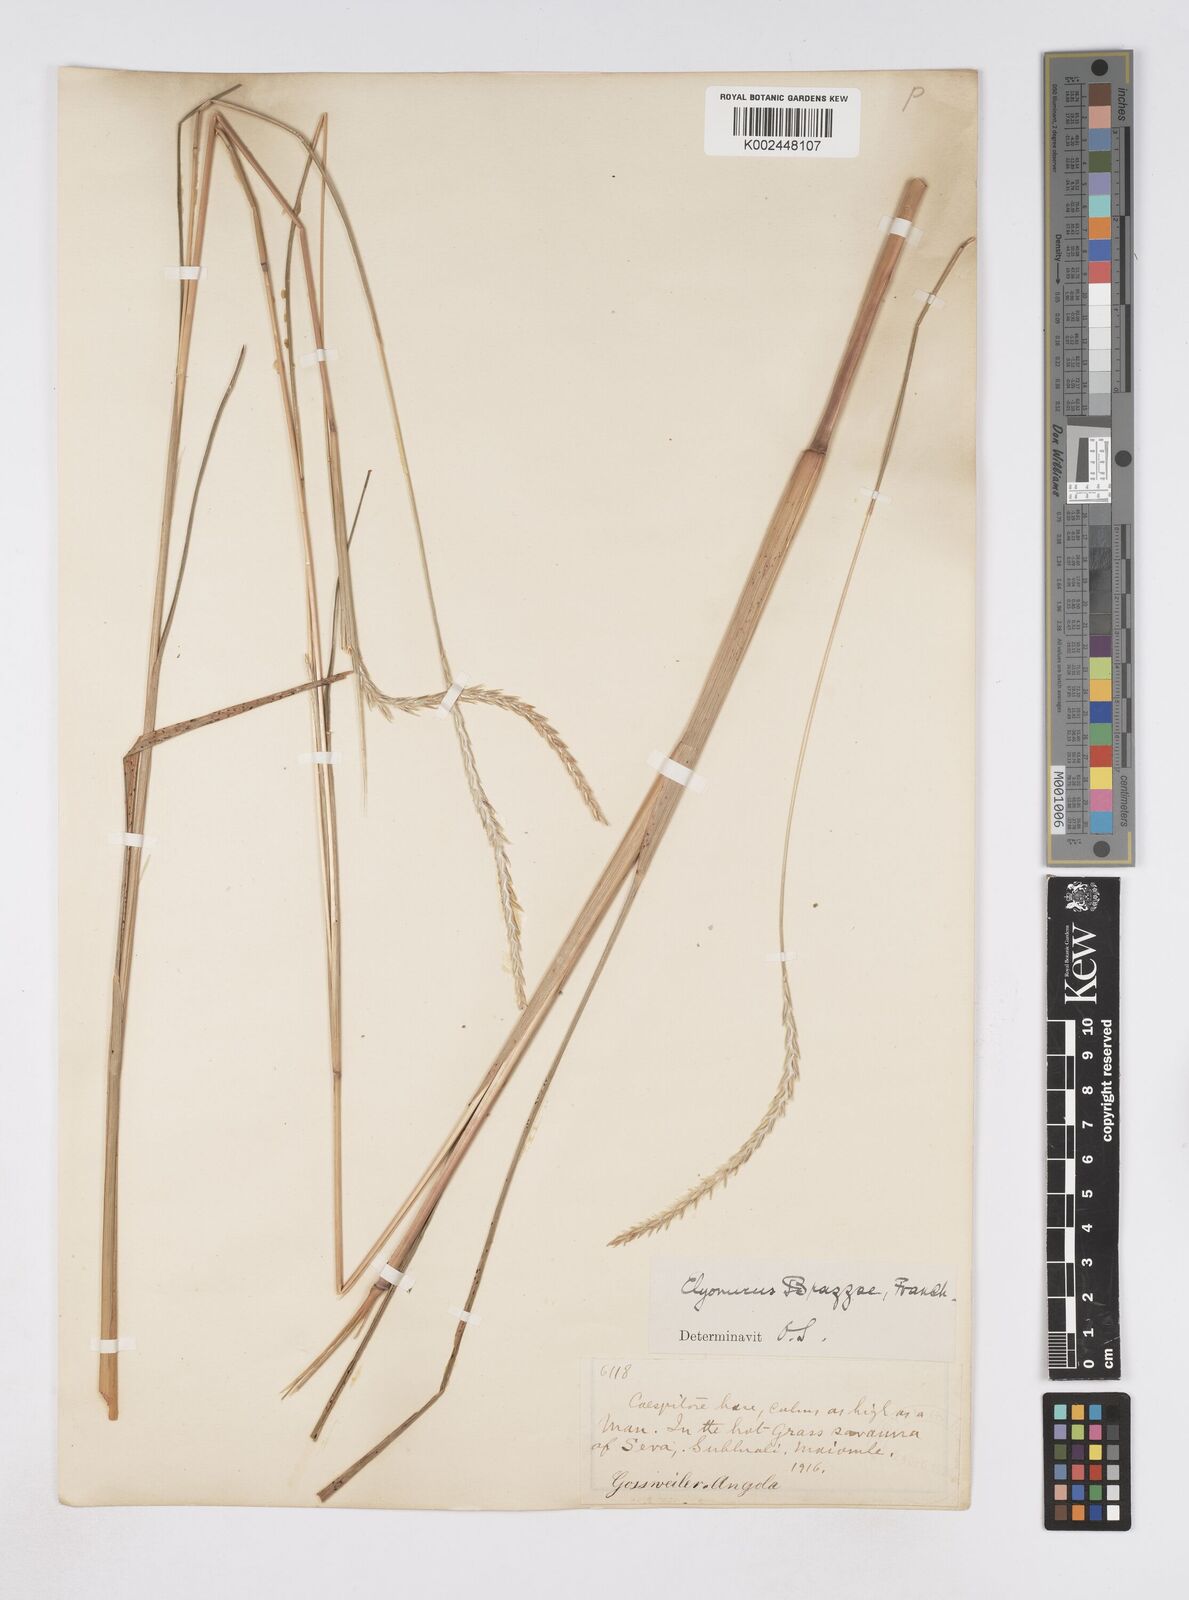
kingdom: Plantae
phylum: Tracheophyta
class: Liliopsida
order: Poales
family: Poaceae
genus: Elionurus
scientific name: Elionurus platypus
